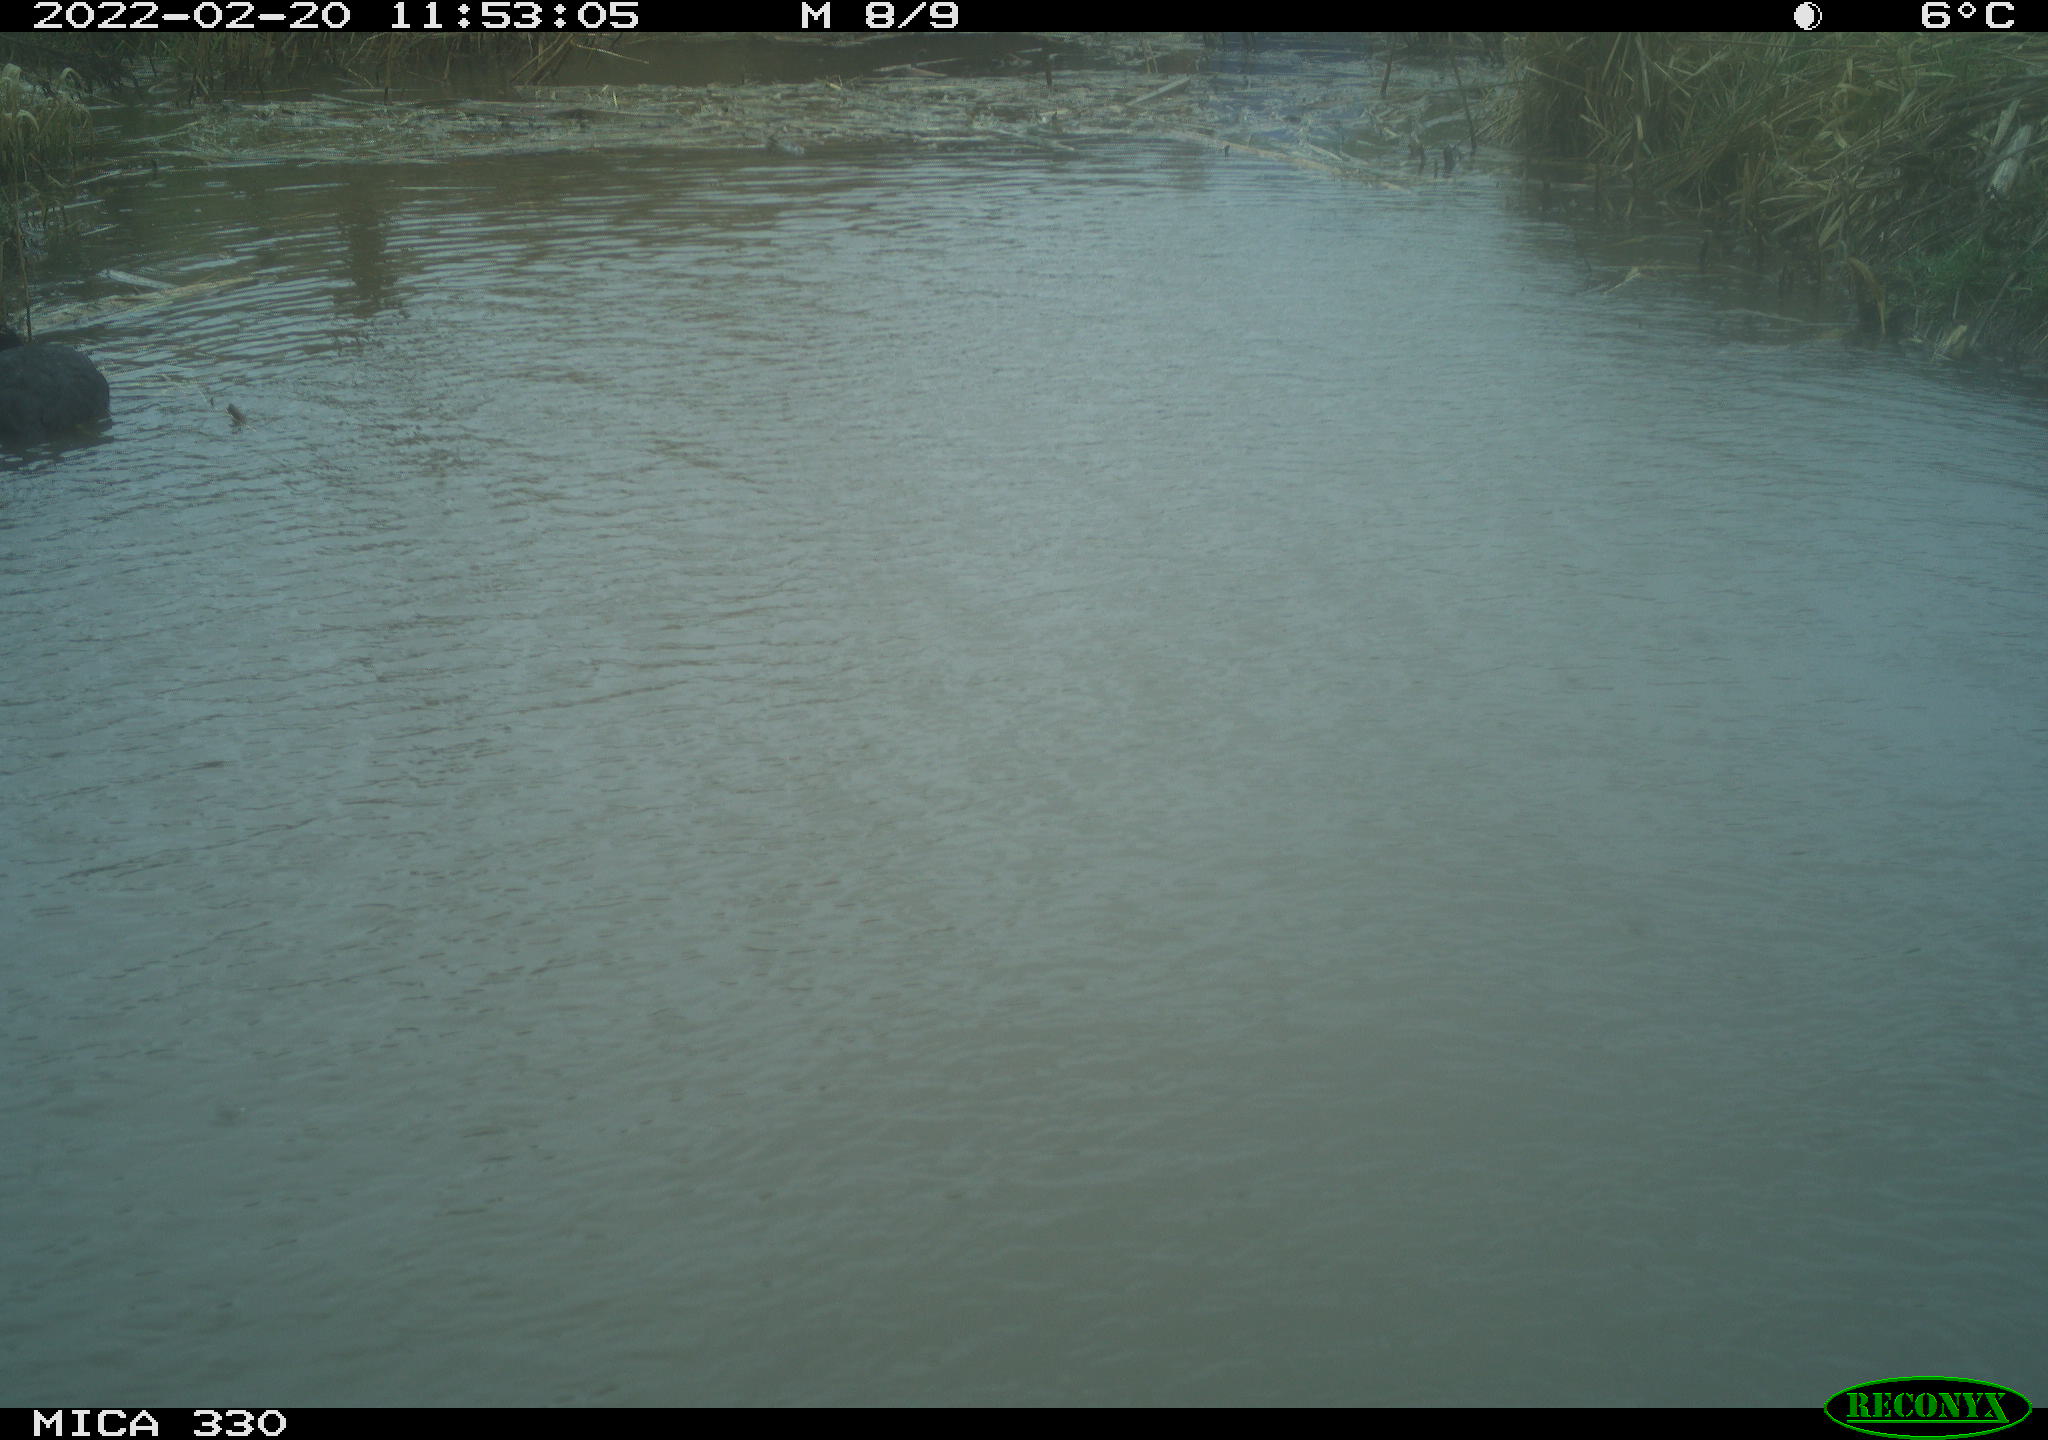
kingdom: Animalia
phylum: Chordata
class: Aves
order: Gruiformes
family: Rallidae
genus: Fulica
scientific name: Fulica atra
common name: Eurasian coot
